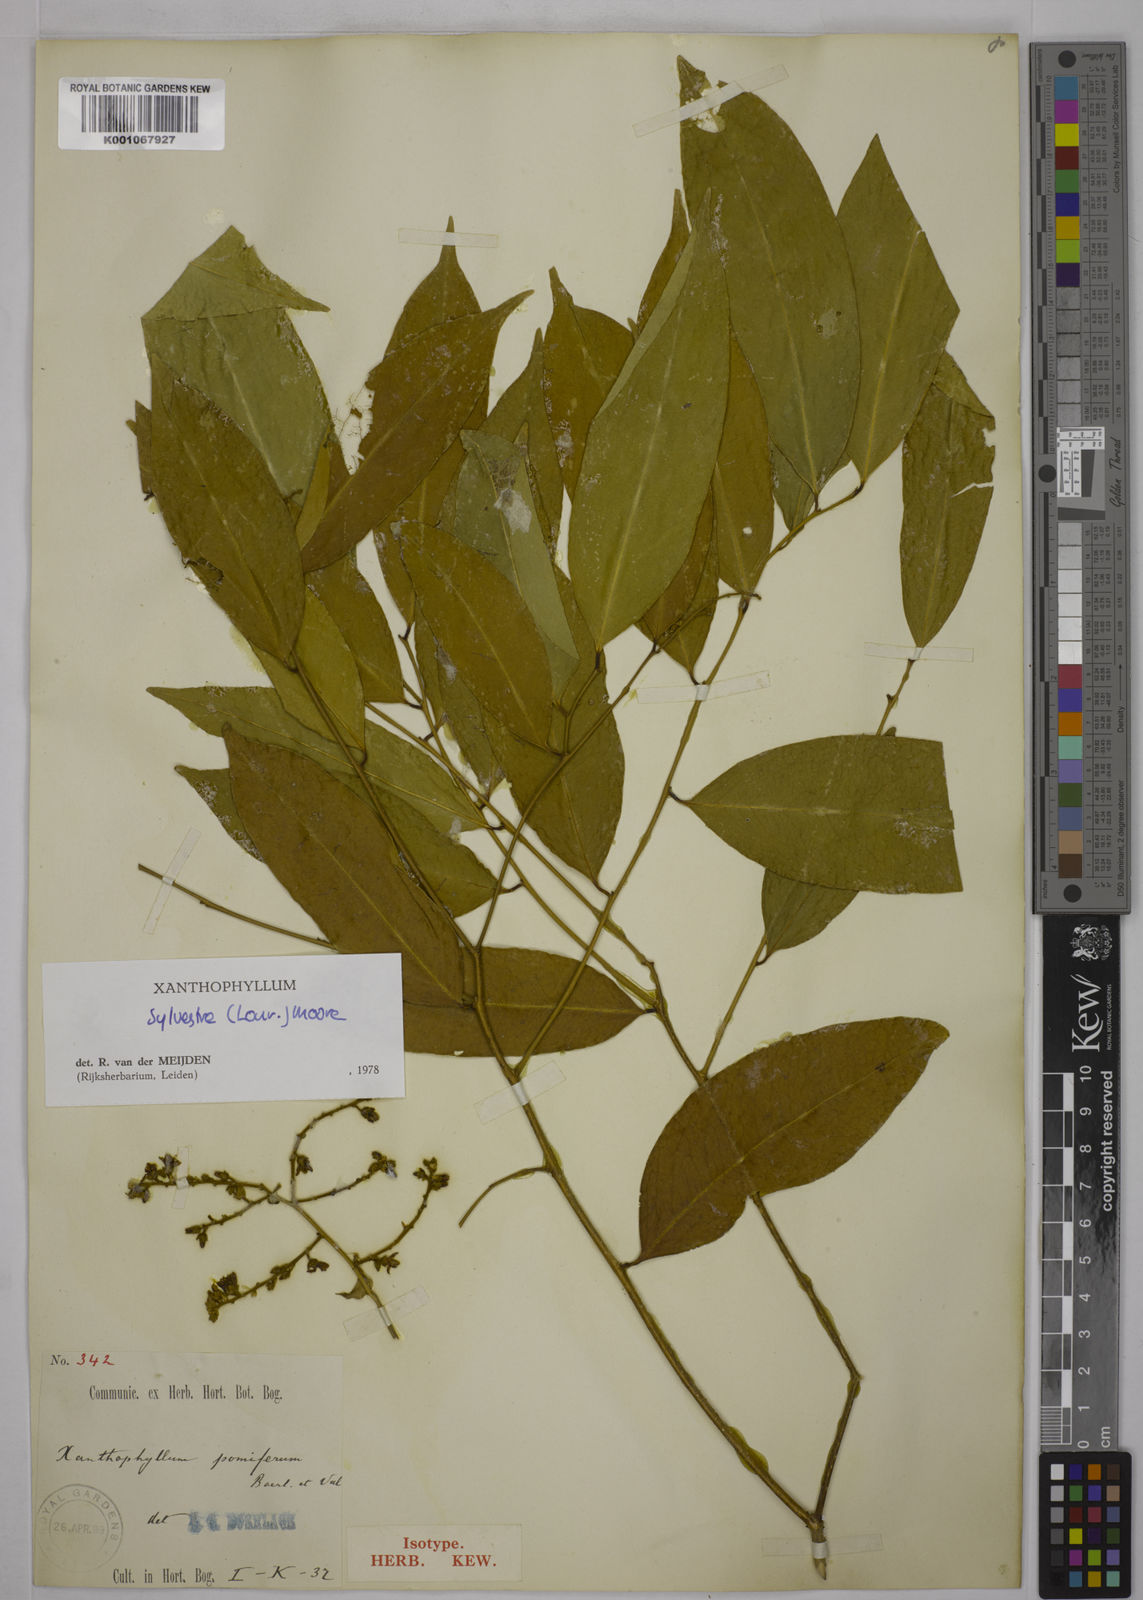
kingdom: Plantae
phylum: Tracheophyta
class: Magnoliopsida
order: Fabales
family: Polygalaceae
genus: Xanthophyllum
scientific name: Xanthophyllum sylvestre
